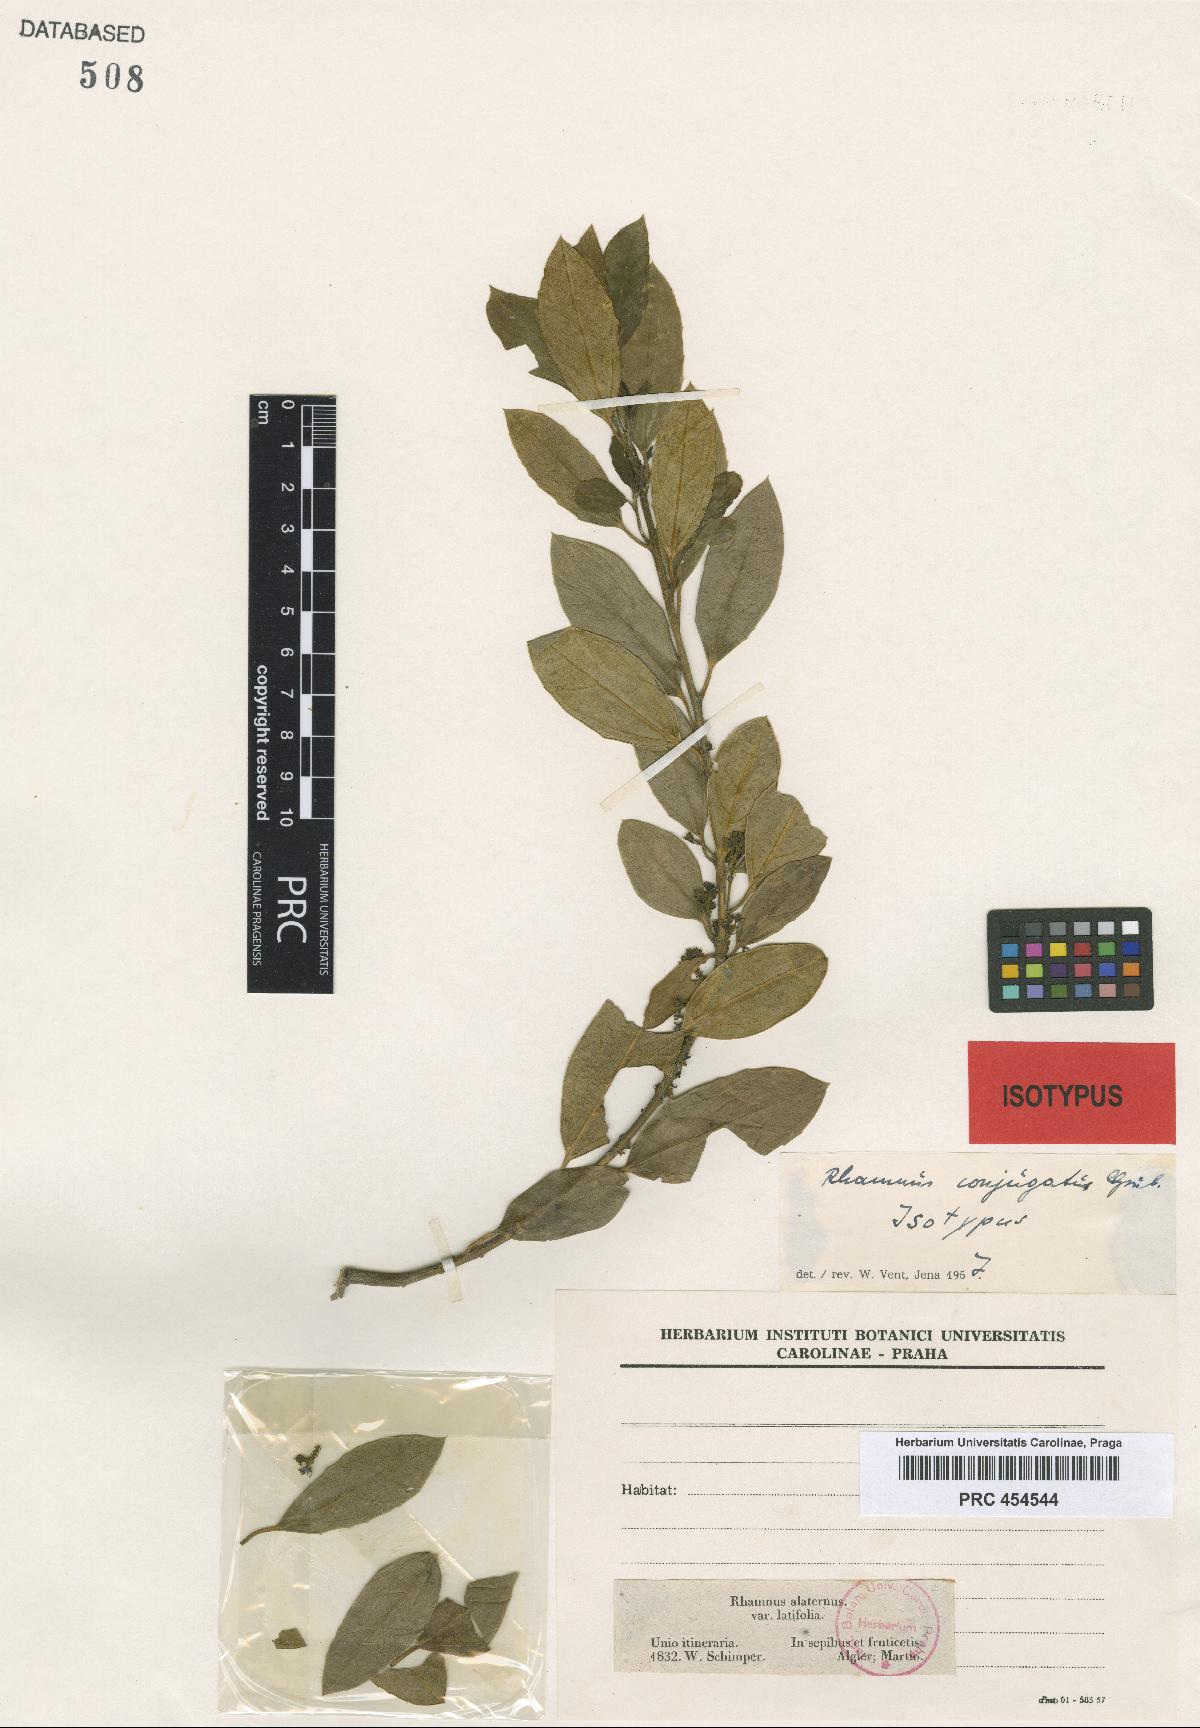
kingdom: Plantae
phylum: Tracheophyta
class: Magnoliopsida
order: Rosales
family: Rhamnaceae
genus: Rhamnus
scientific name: Rhamnus conjugata
